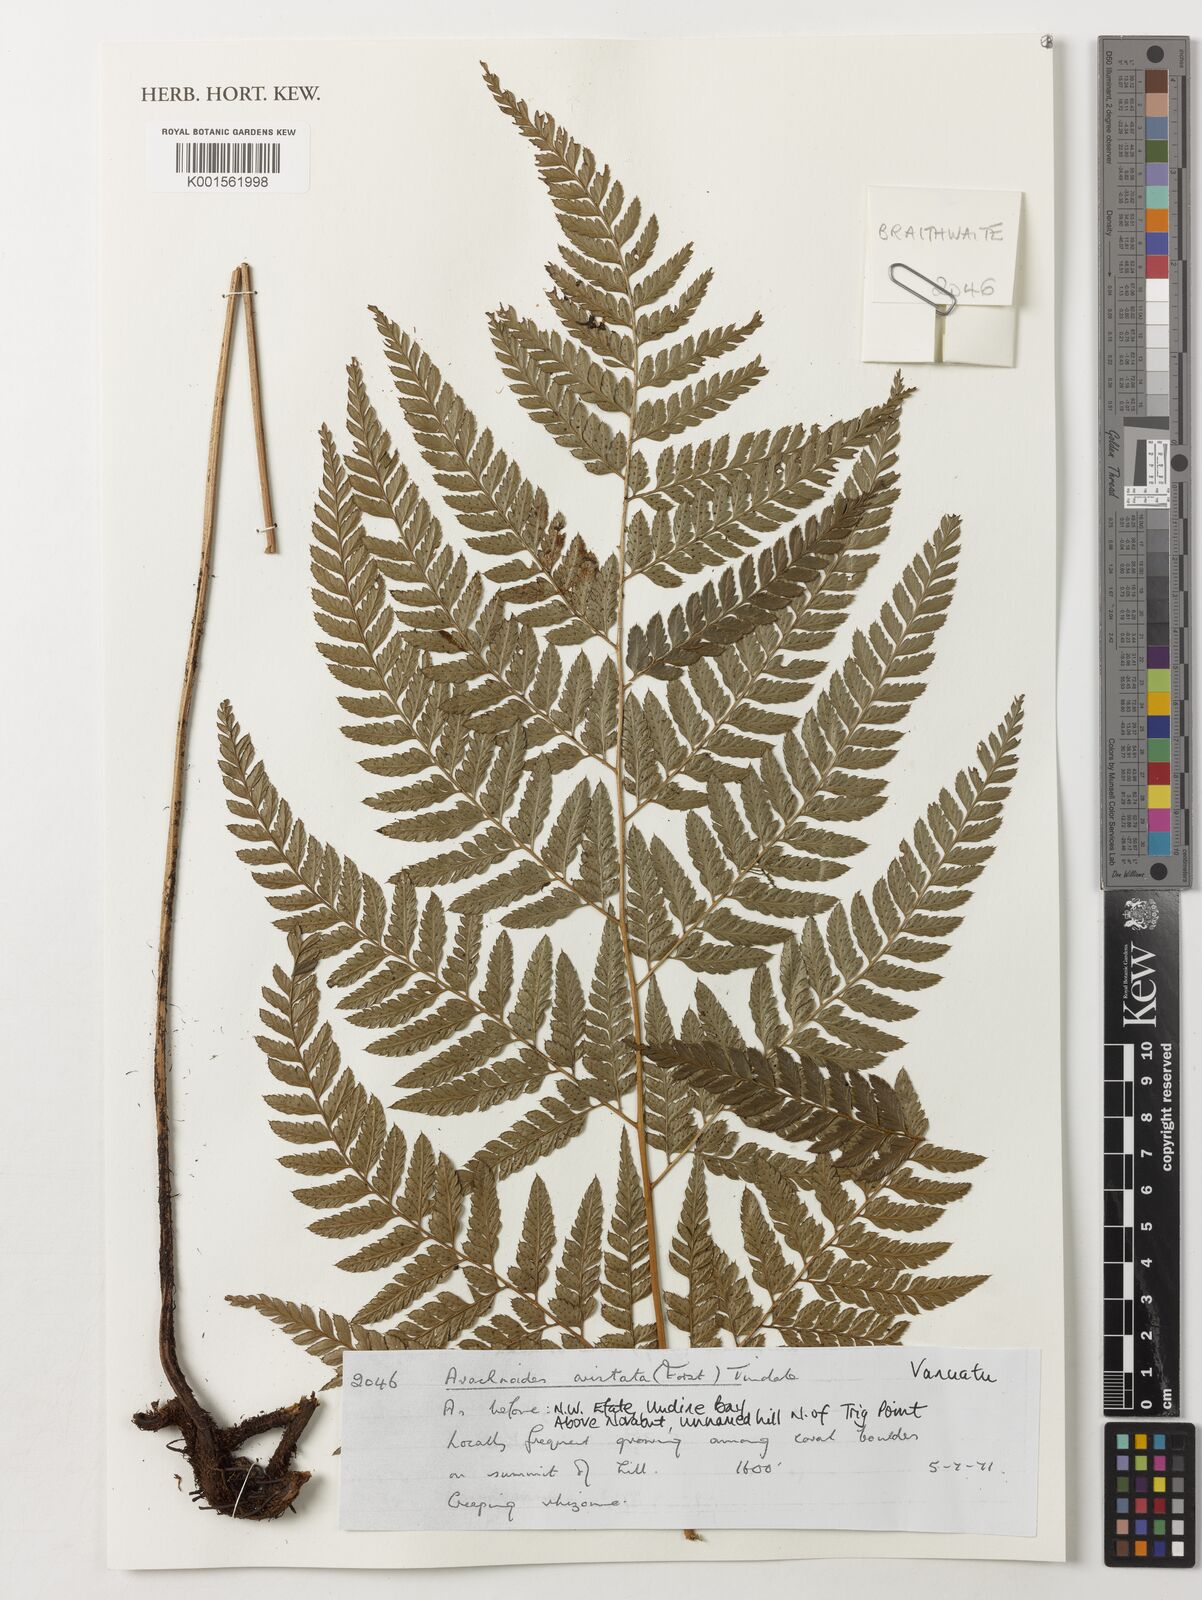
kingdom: Plantae
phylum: Tracheophyta
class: Polypodiopsida
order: Polypodiales
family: Dryopteridaceae
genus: Arachniodes
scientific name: Arachniodes aristata
